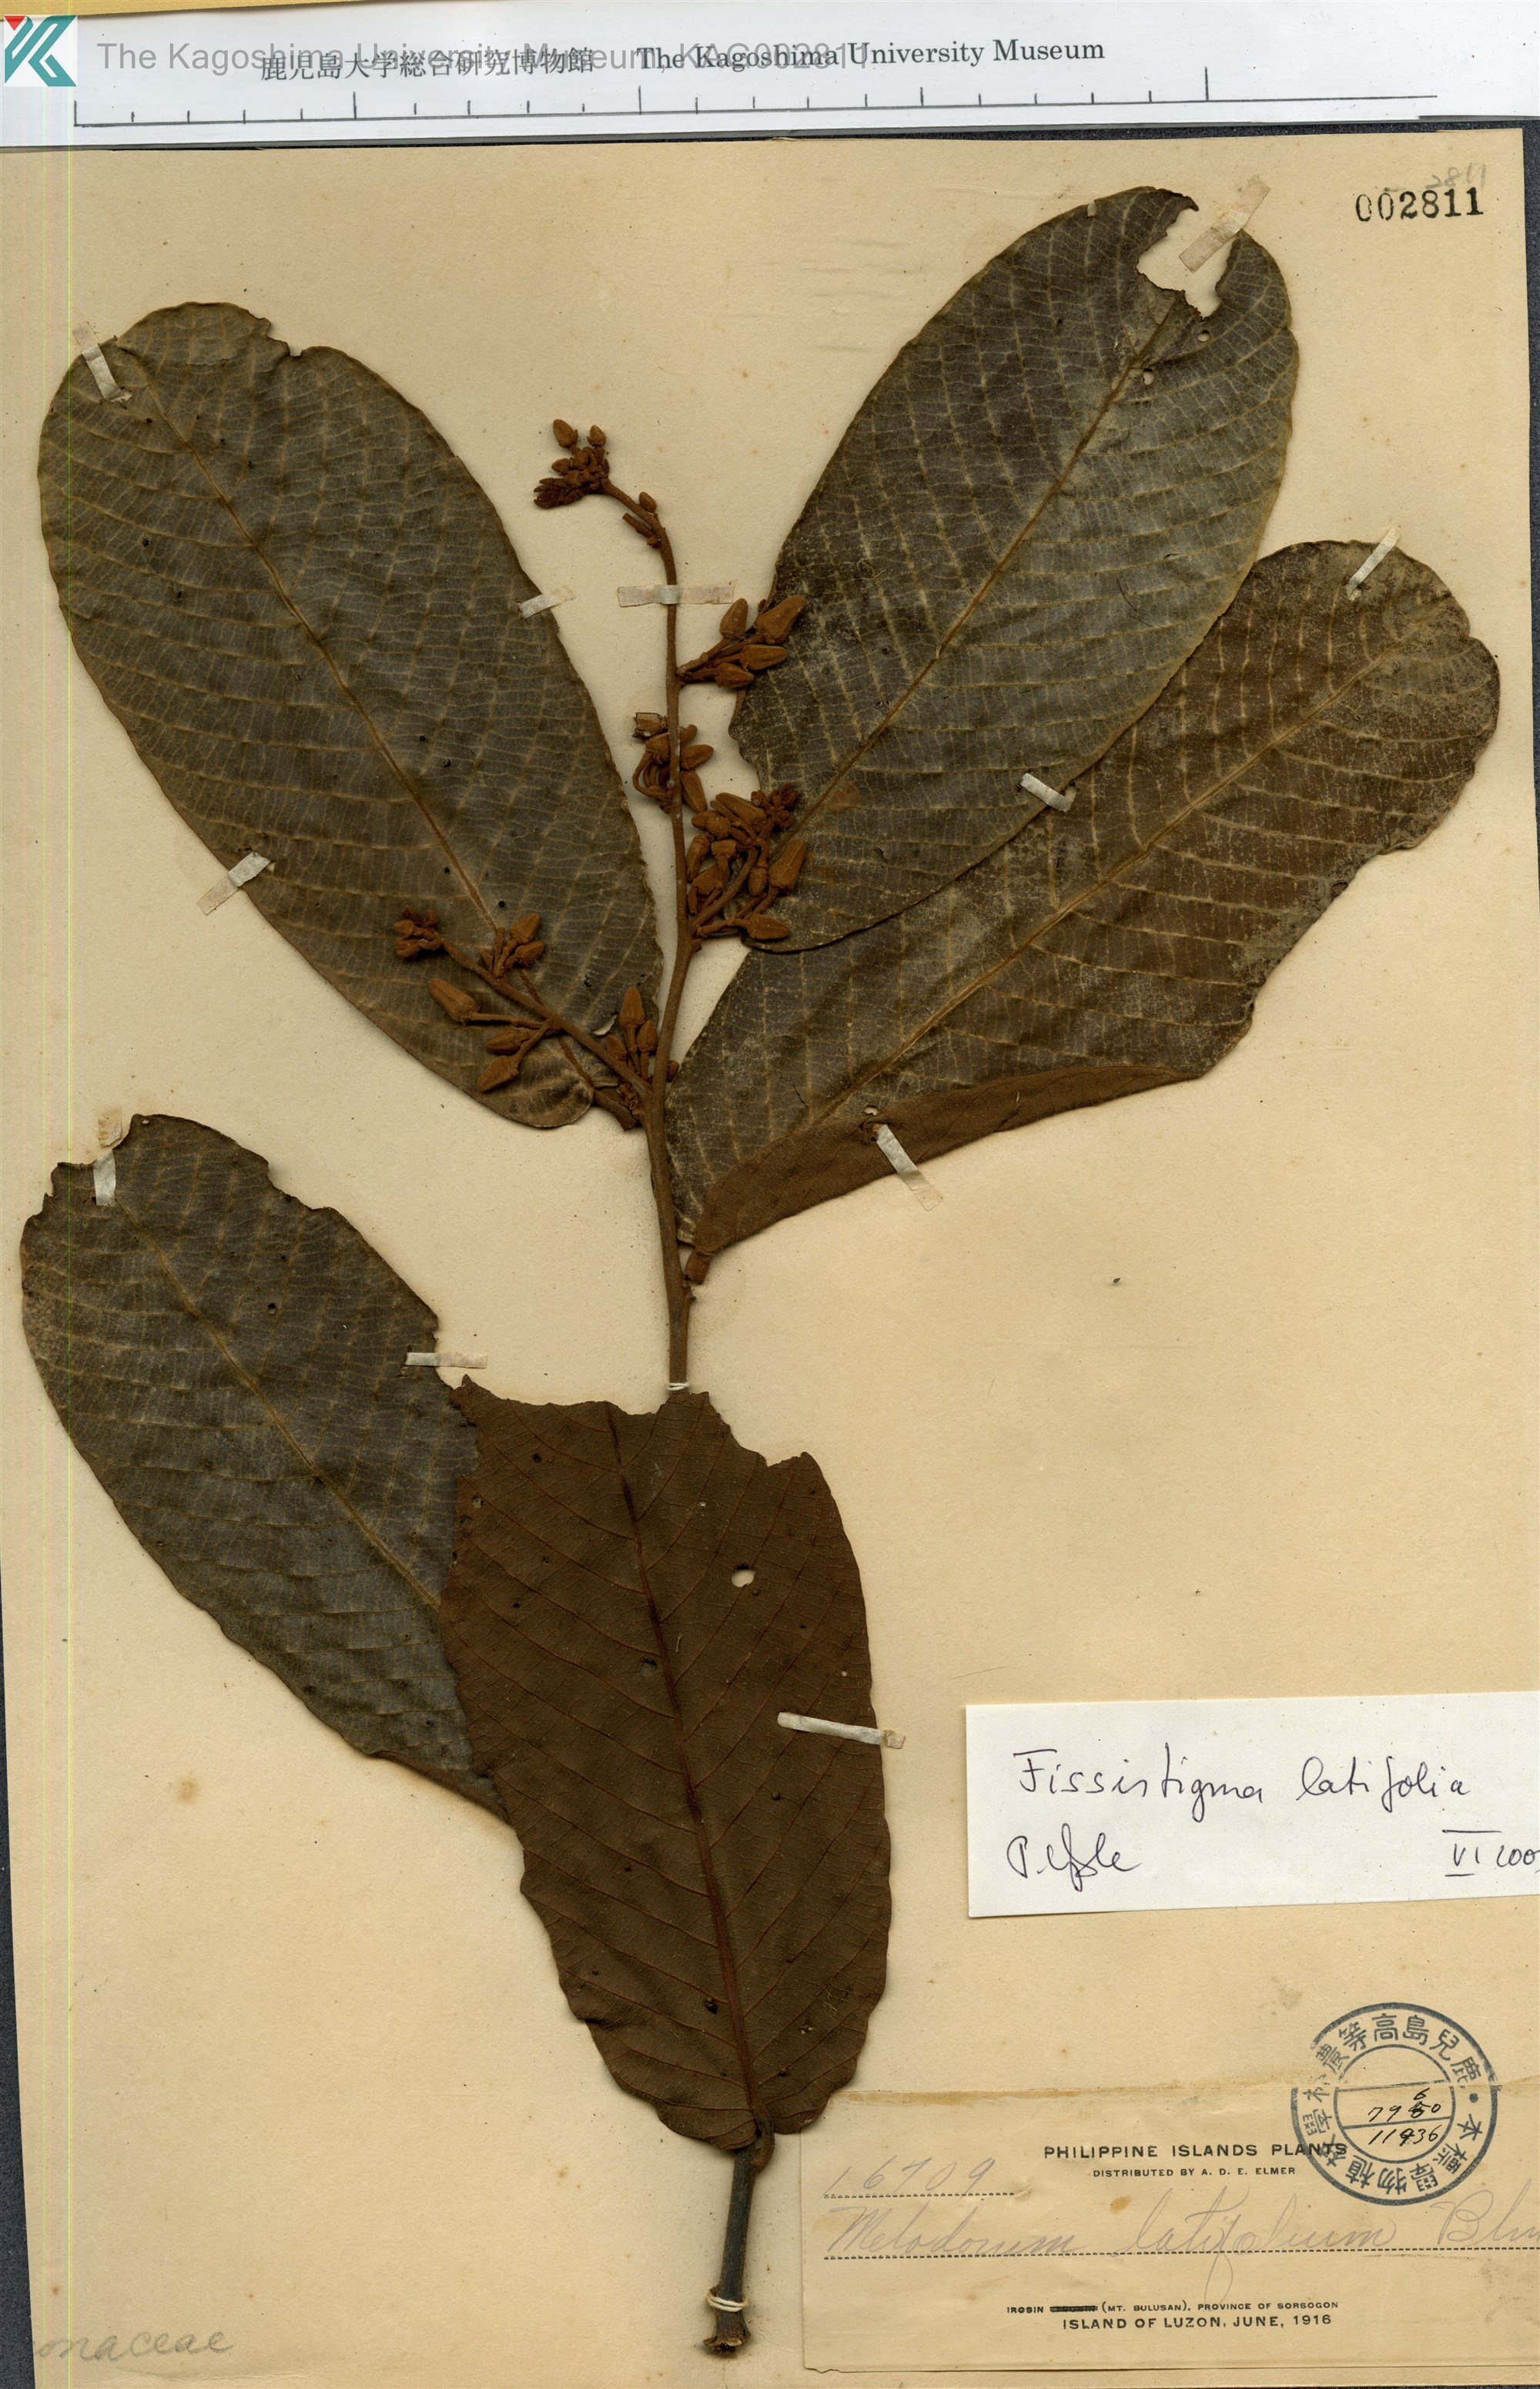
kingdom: Plantae
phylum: Tracheophyta
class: Magnoliopsida
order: Magnoliales
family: Annonaceae
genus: Fissistigma
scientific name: Fissistigma latifolium
